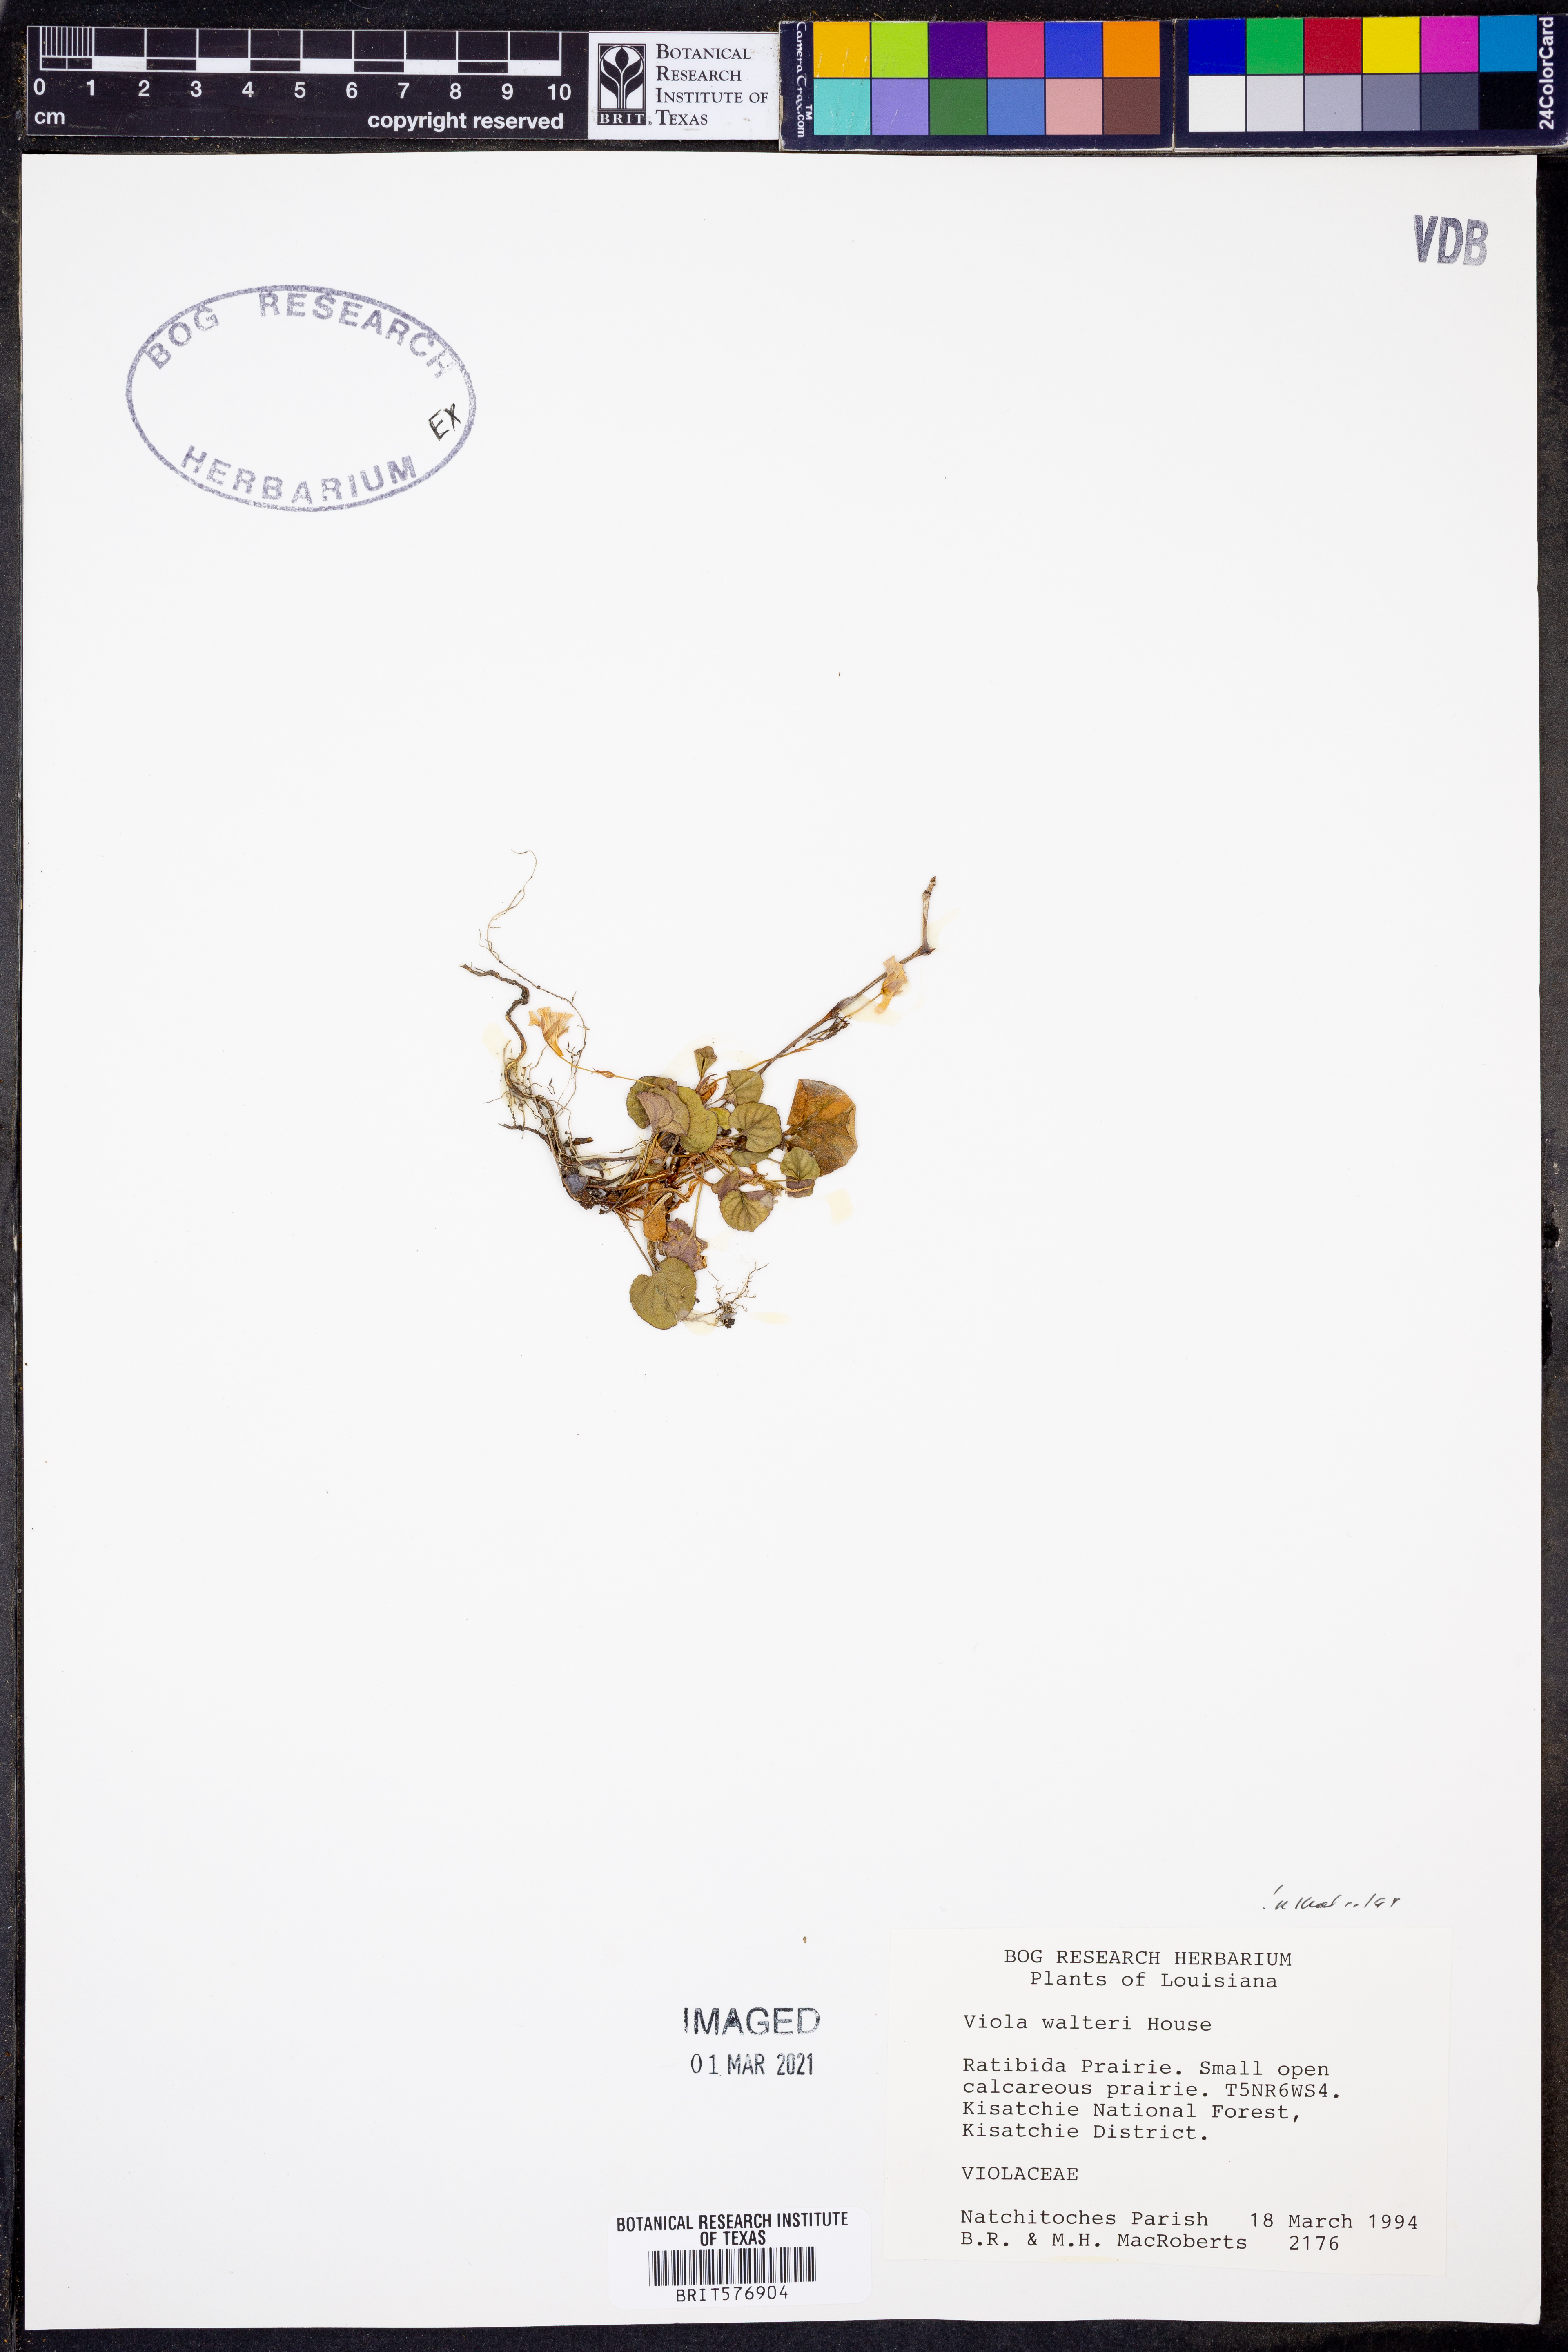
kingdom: Plantae
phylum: Tracheophyta
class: Magnoliopsida
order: Malpighiales
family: Violaceae
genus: Viola
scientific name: Viola walteri
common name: Prostrate southern violet
